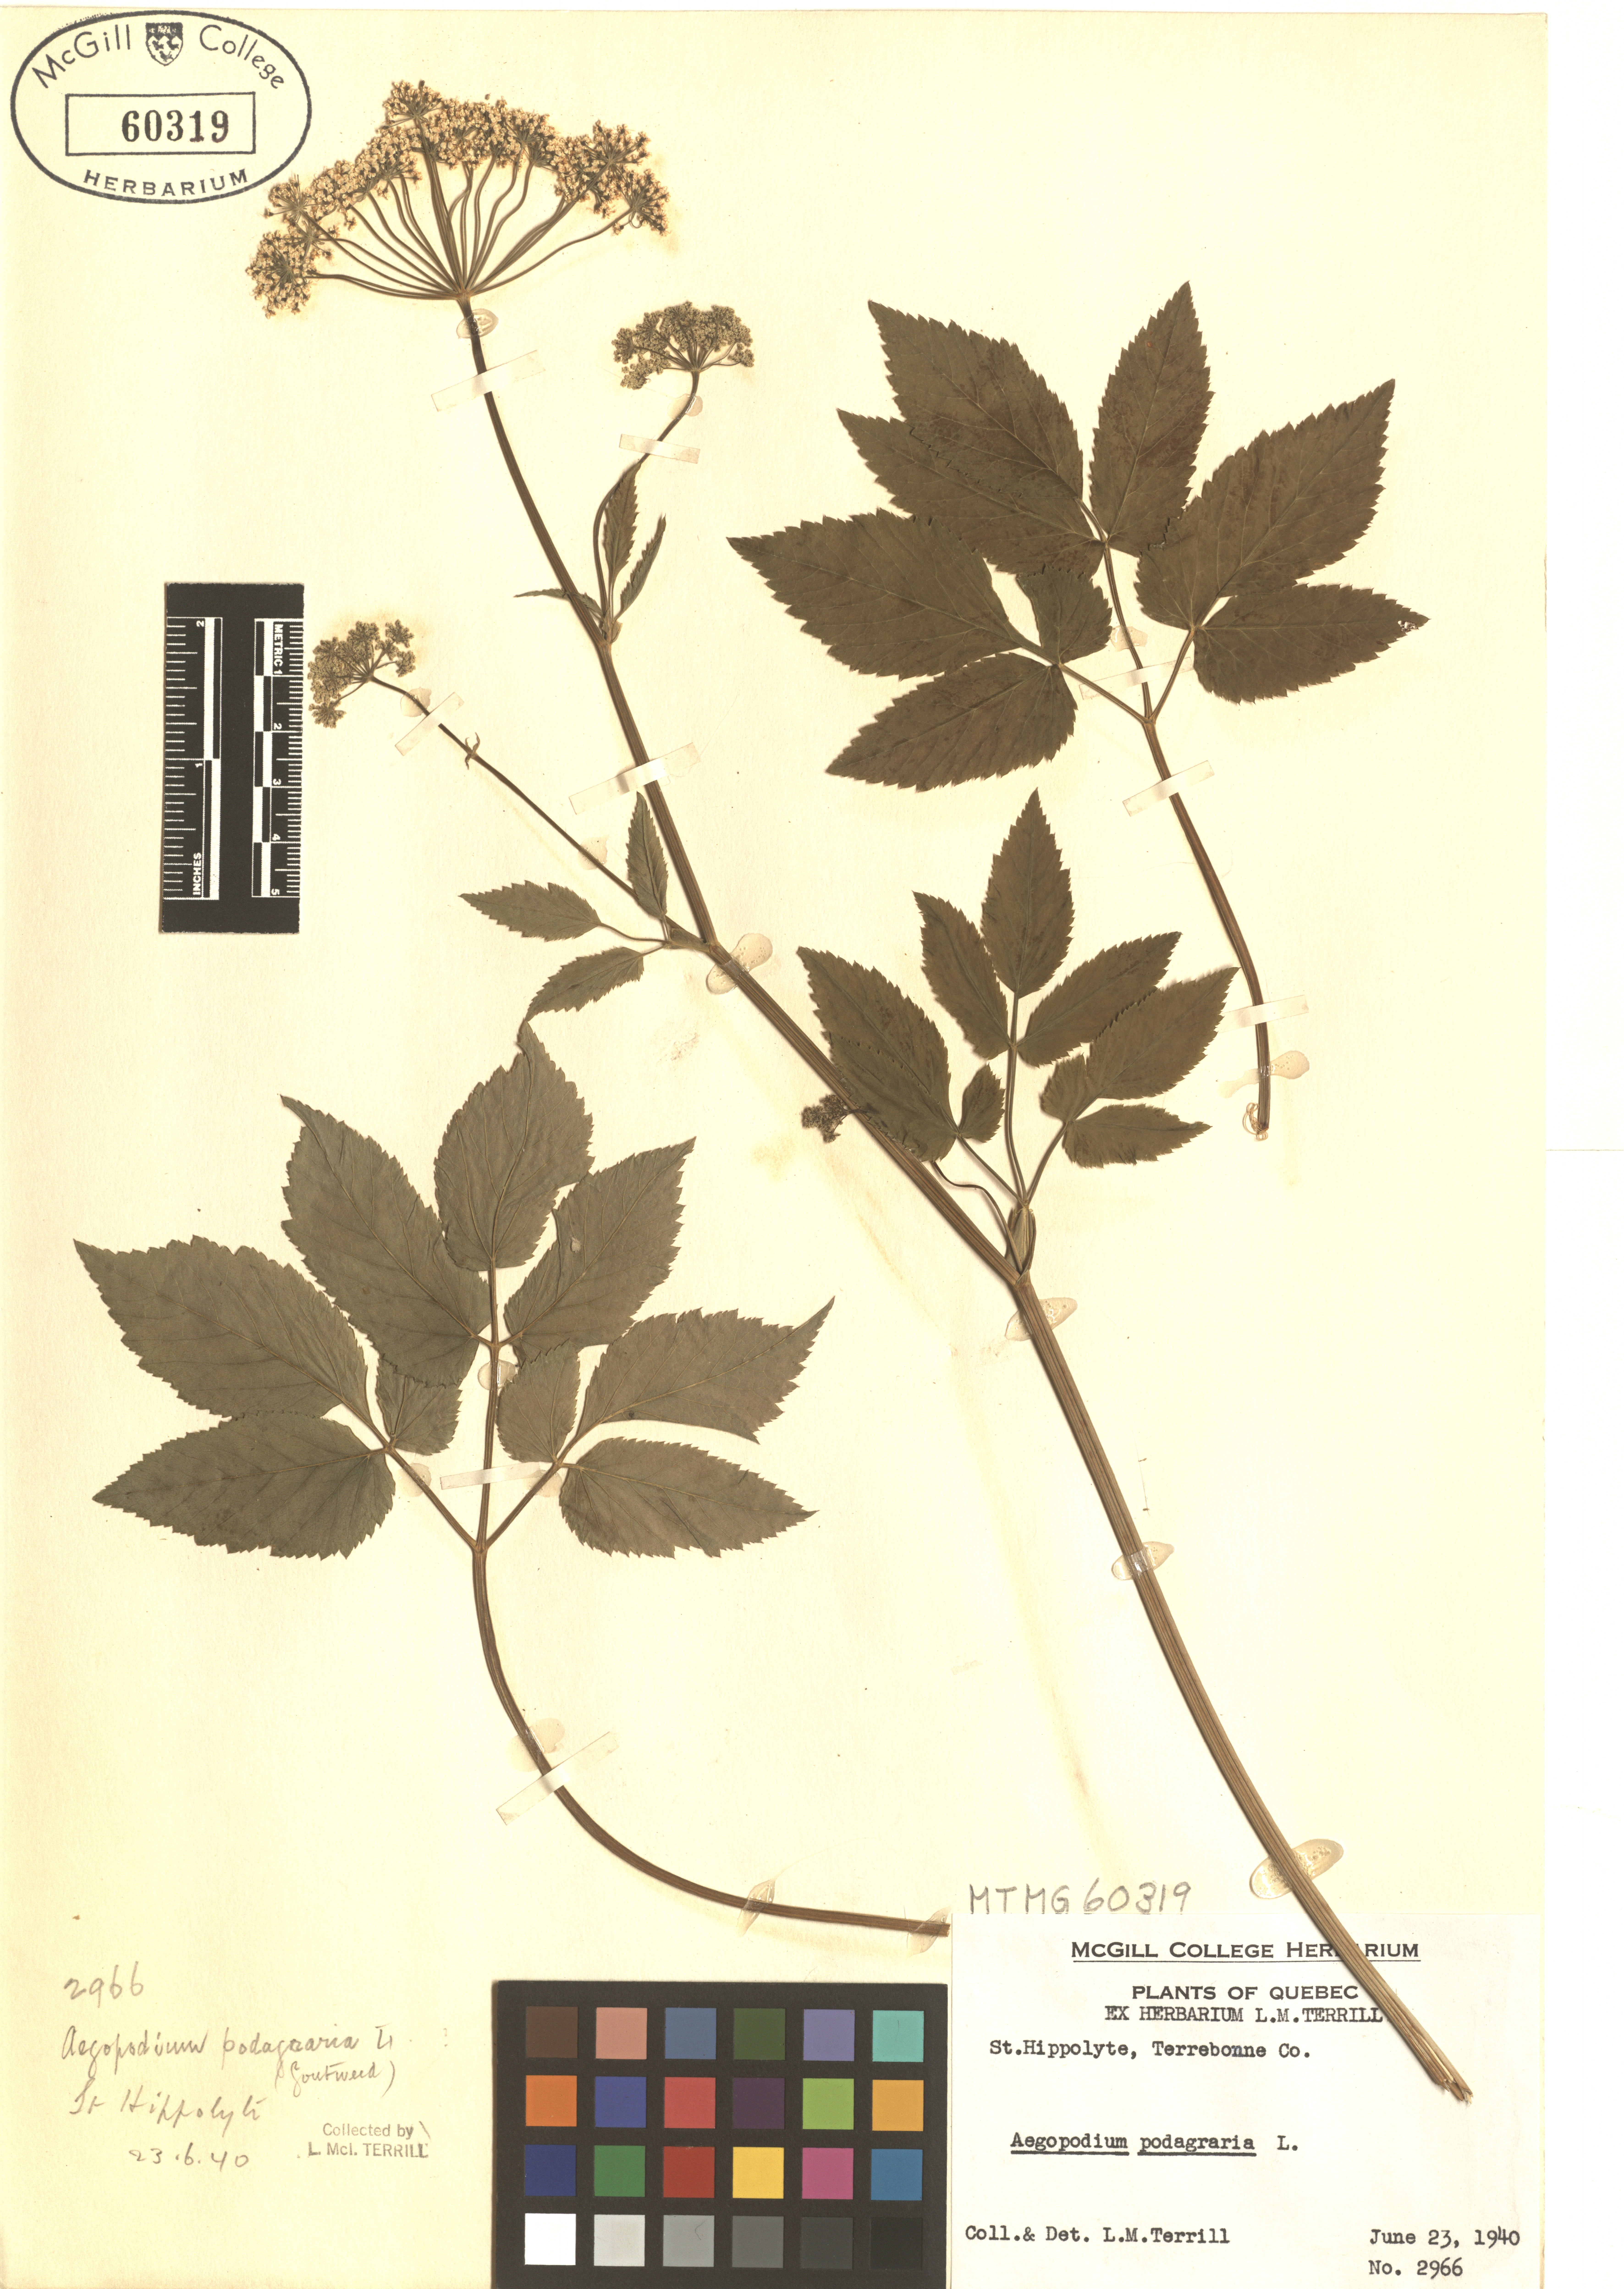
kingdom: Plantae
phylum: Tracheophyta
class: Magnoliopsida
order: Apiales
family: Apiaceae
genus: Aegopodium
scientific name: Aegopodium podagraria
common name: Ground-elder
